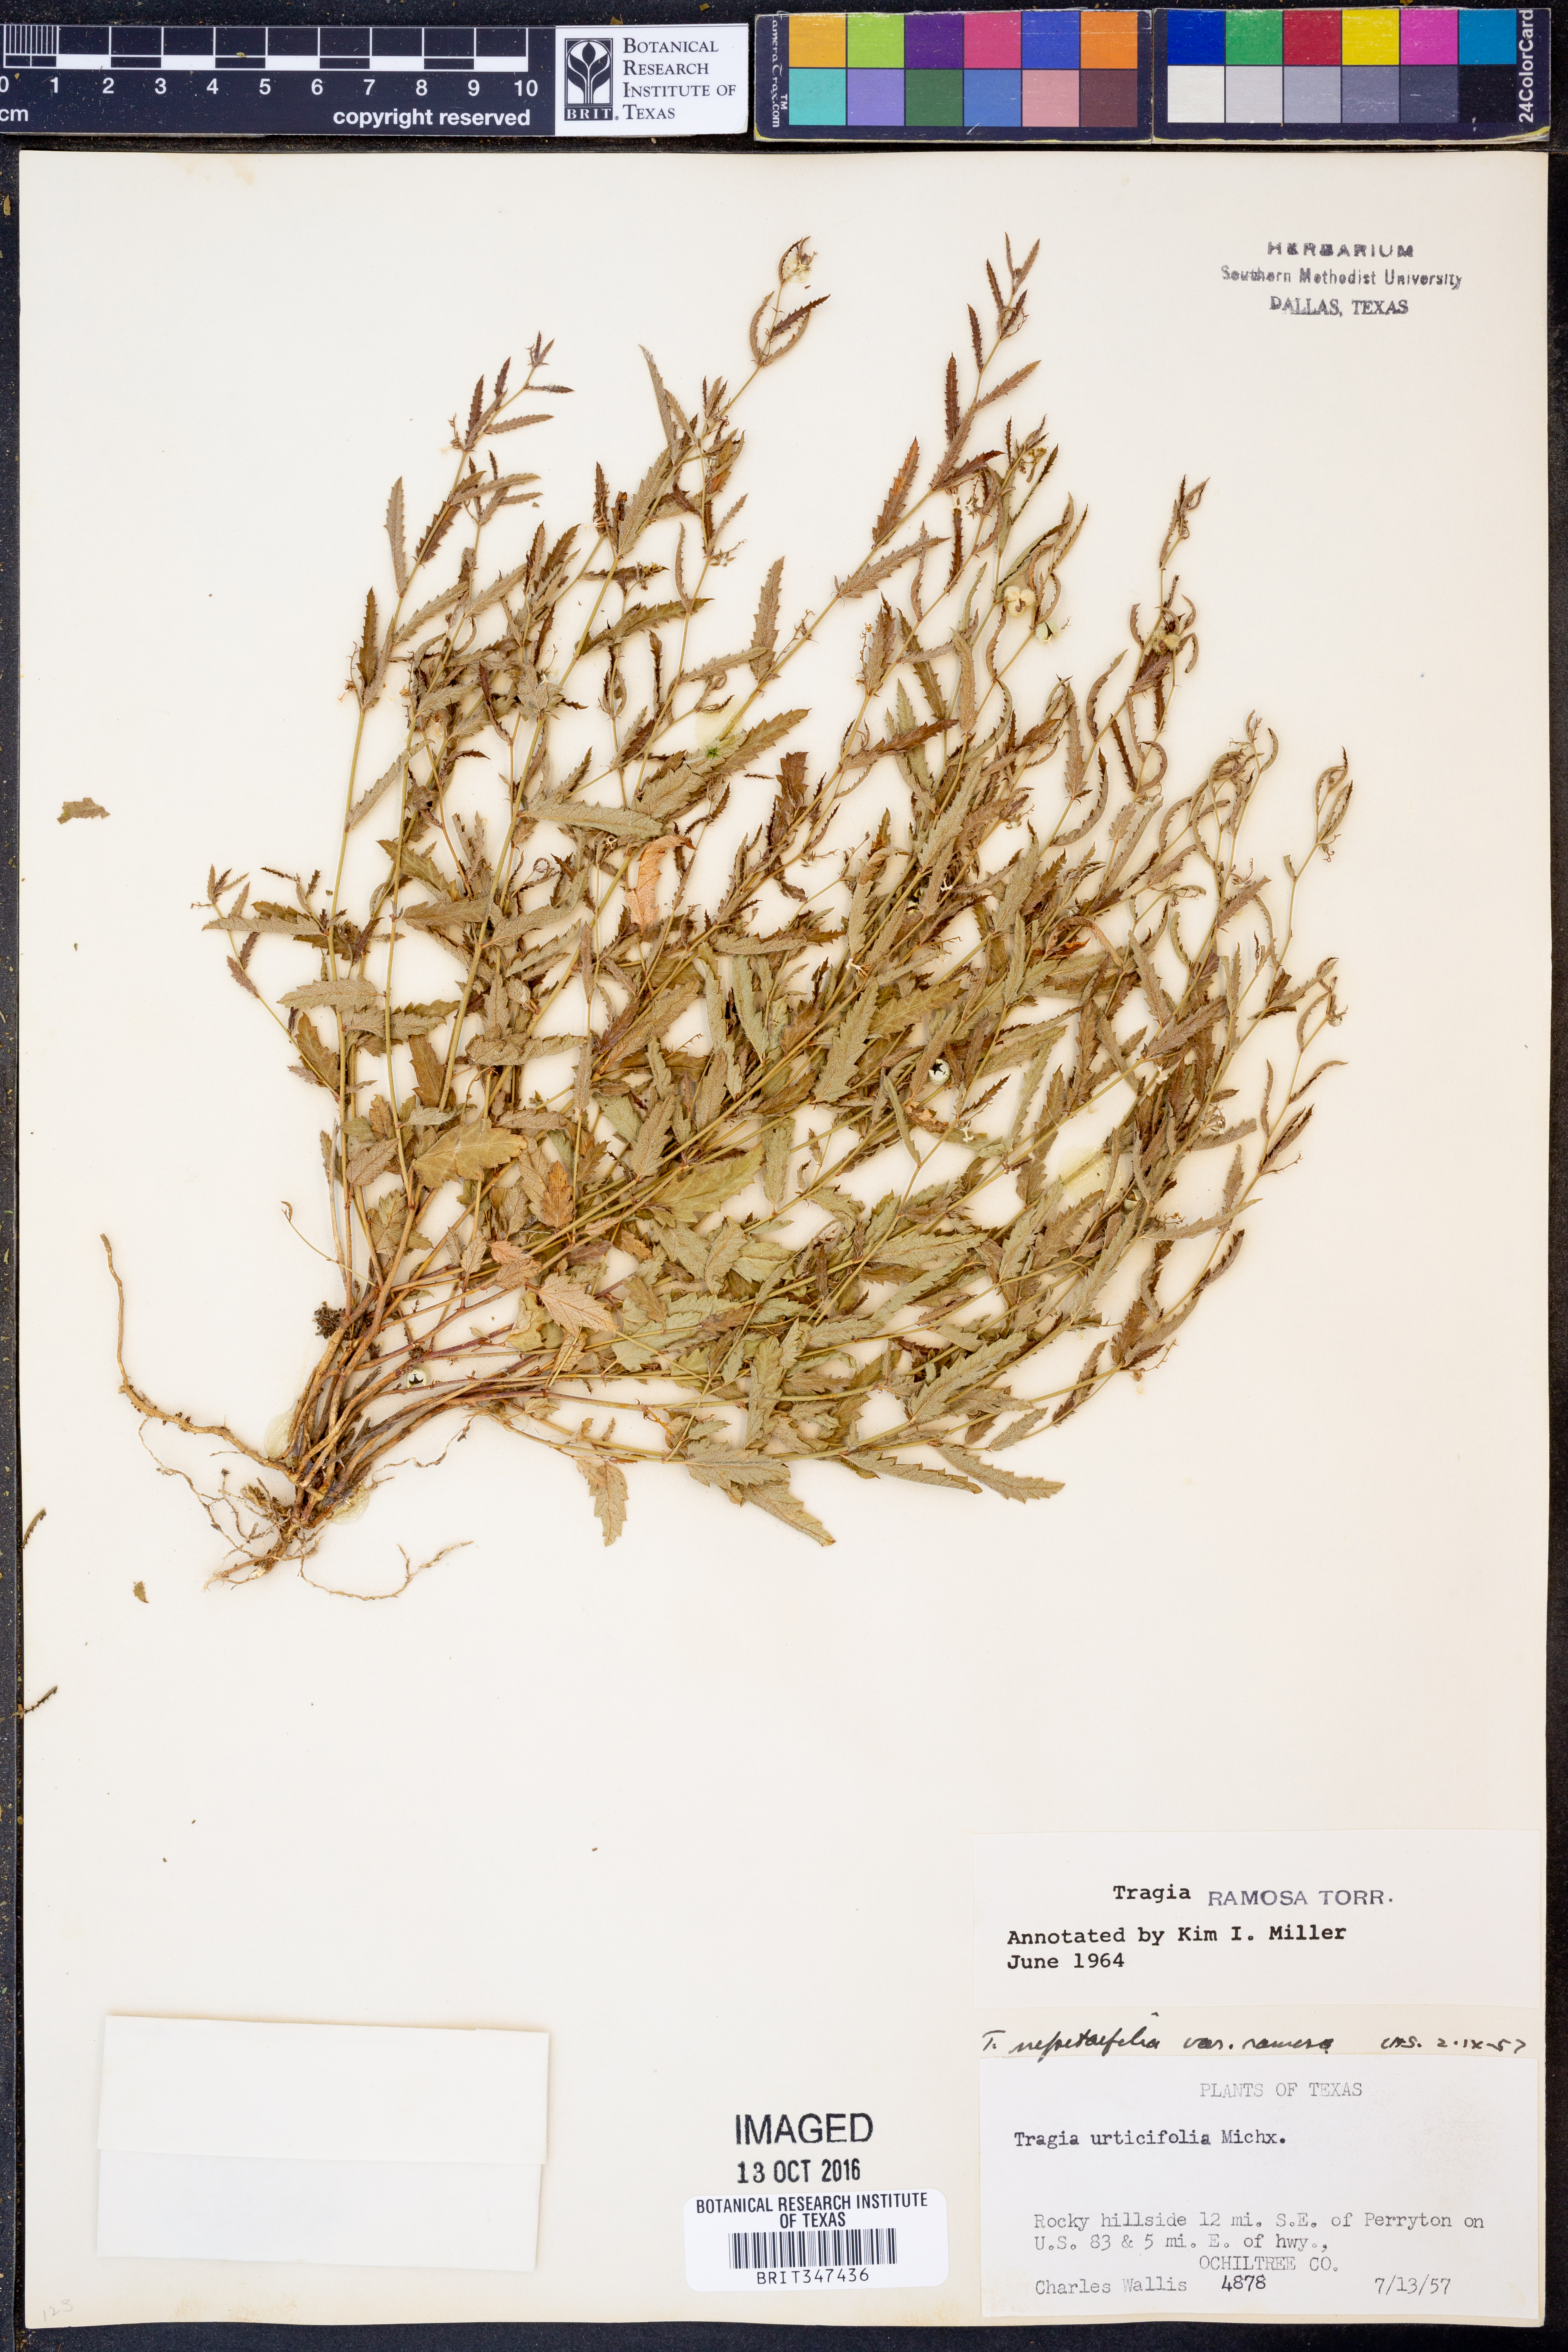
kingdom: Plantae
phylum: Tracheophyta
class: Magnoliopsida
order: Malpighiales
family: Euphorbiaceae
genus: Tragia
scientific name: Tragia ramosa
